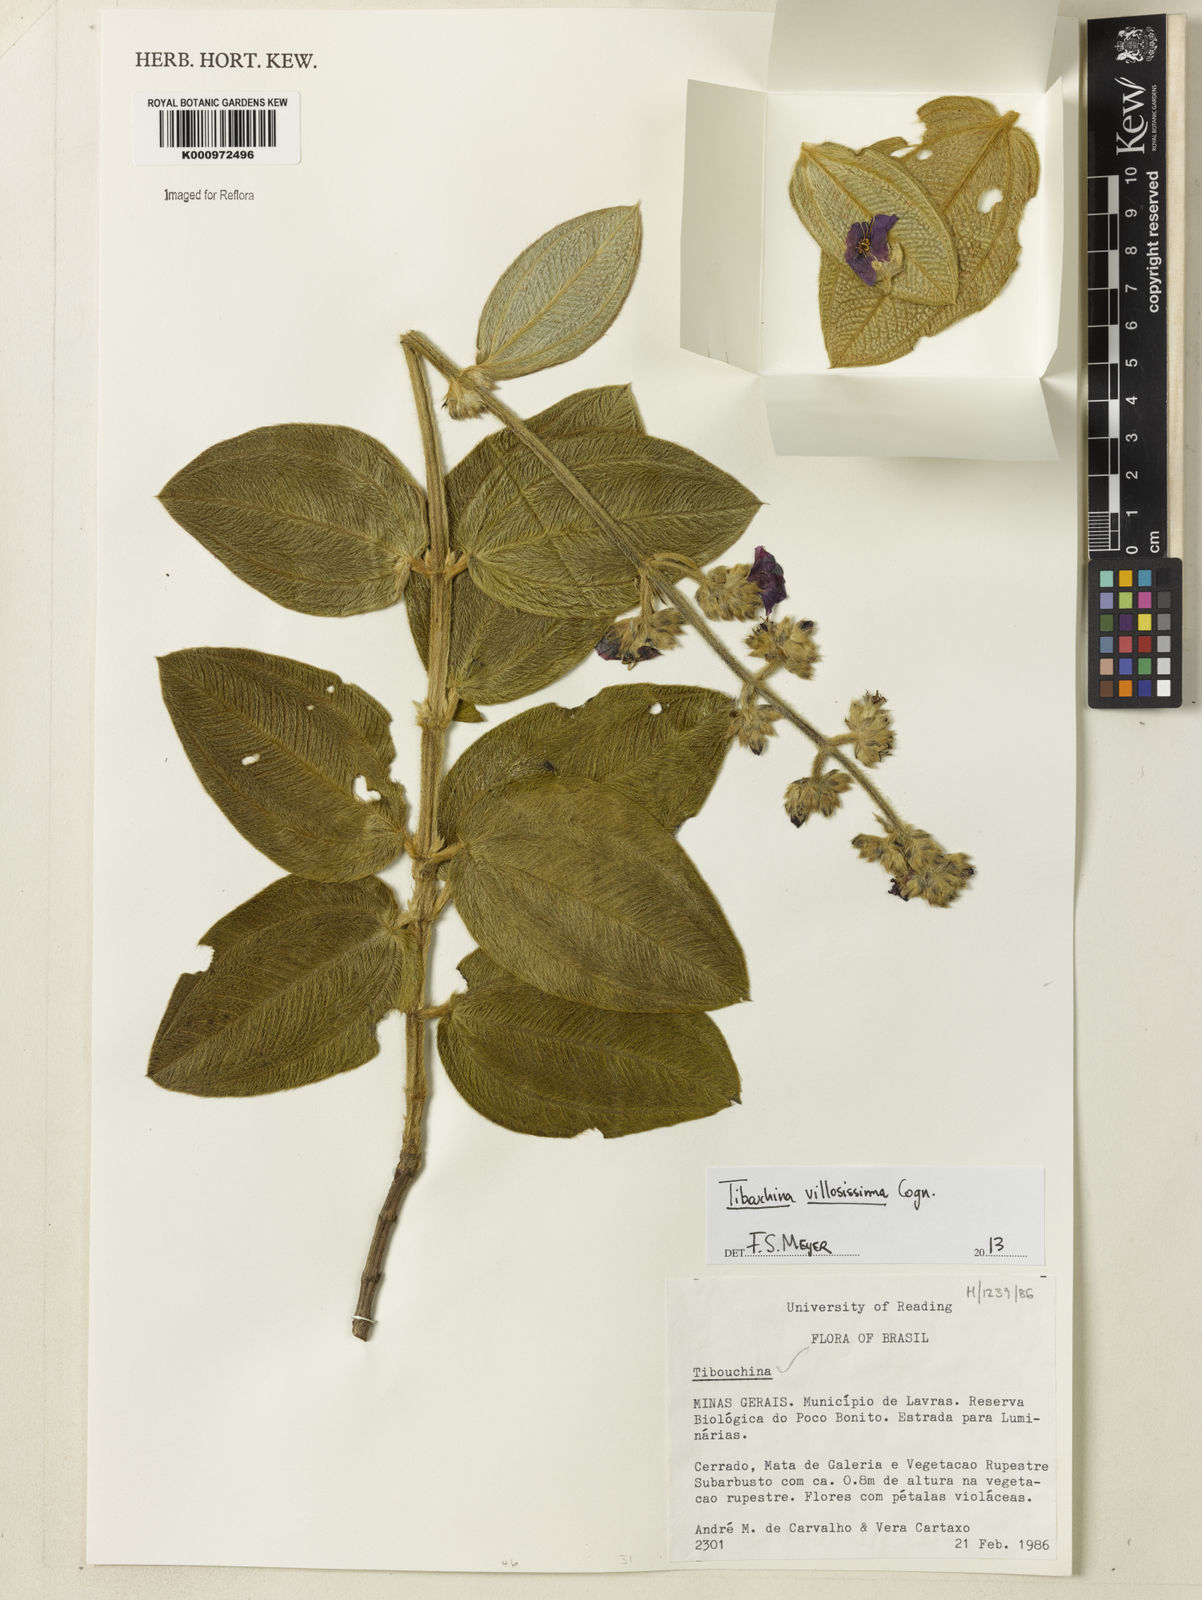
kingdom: Plantae
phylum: Tracheophyta
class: Magnoliopsida
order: Myrtales
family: Melastomataceae
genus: Pleroma
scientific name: Pleroma villosissimum
